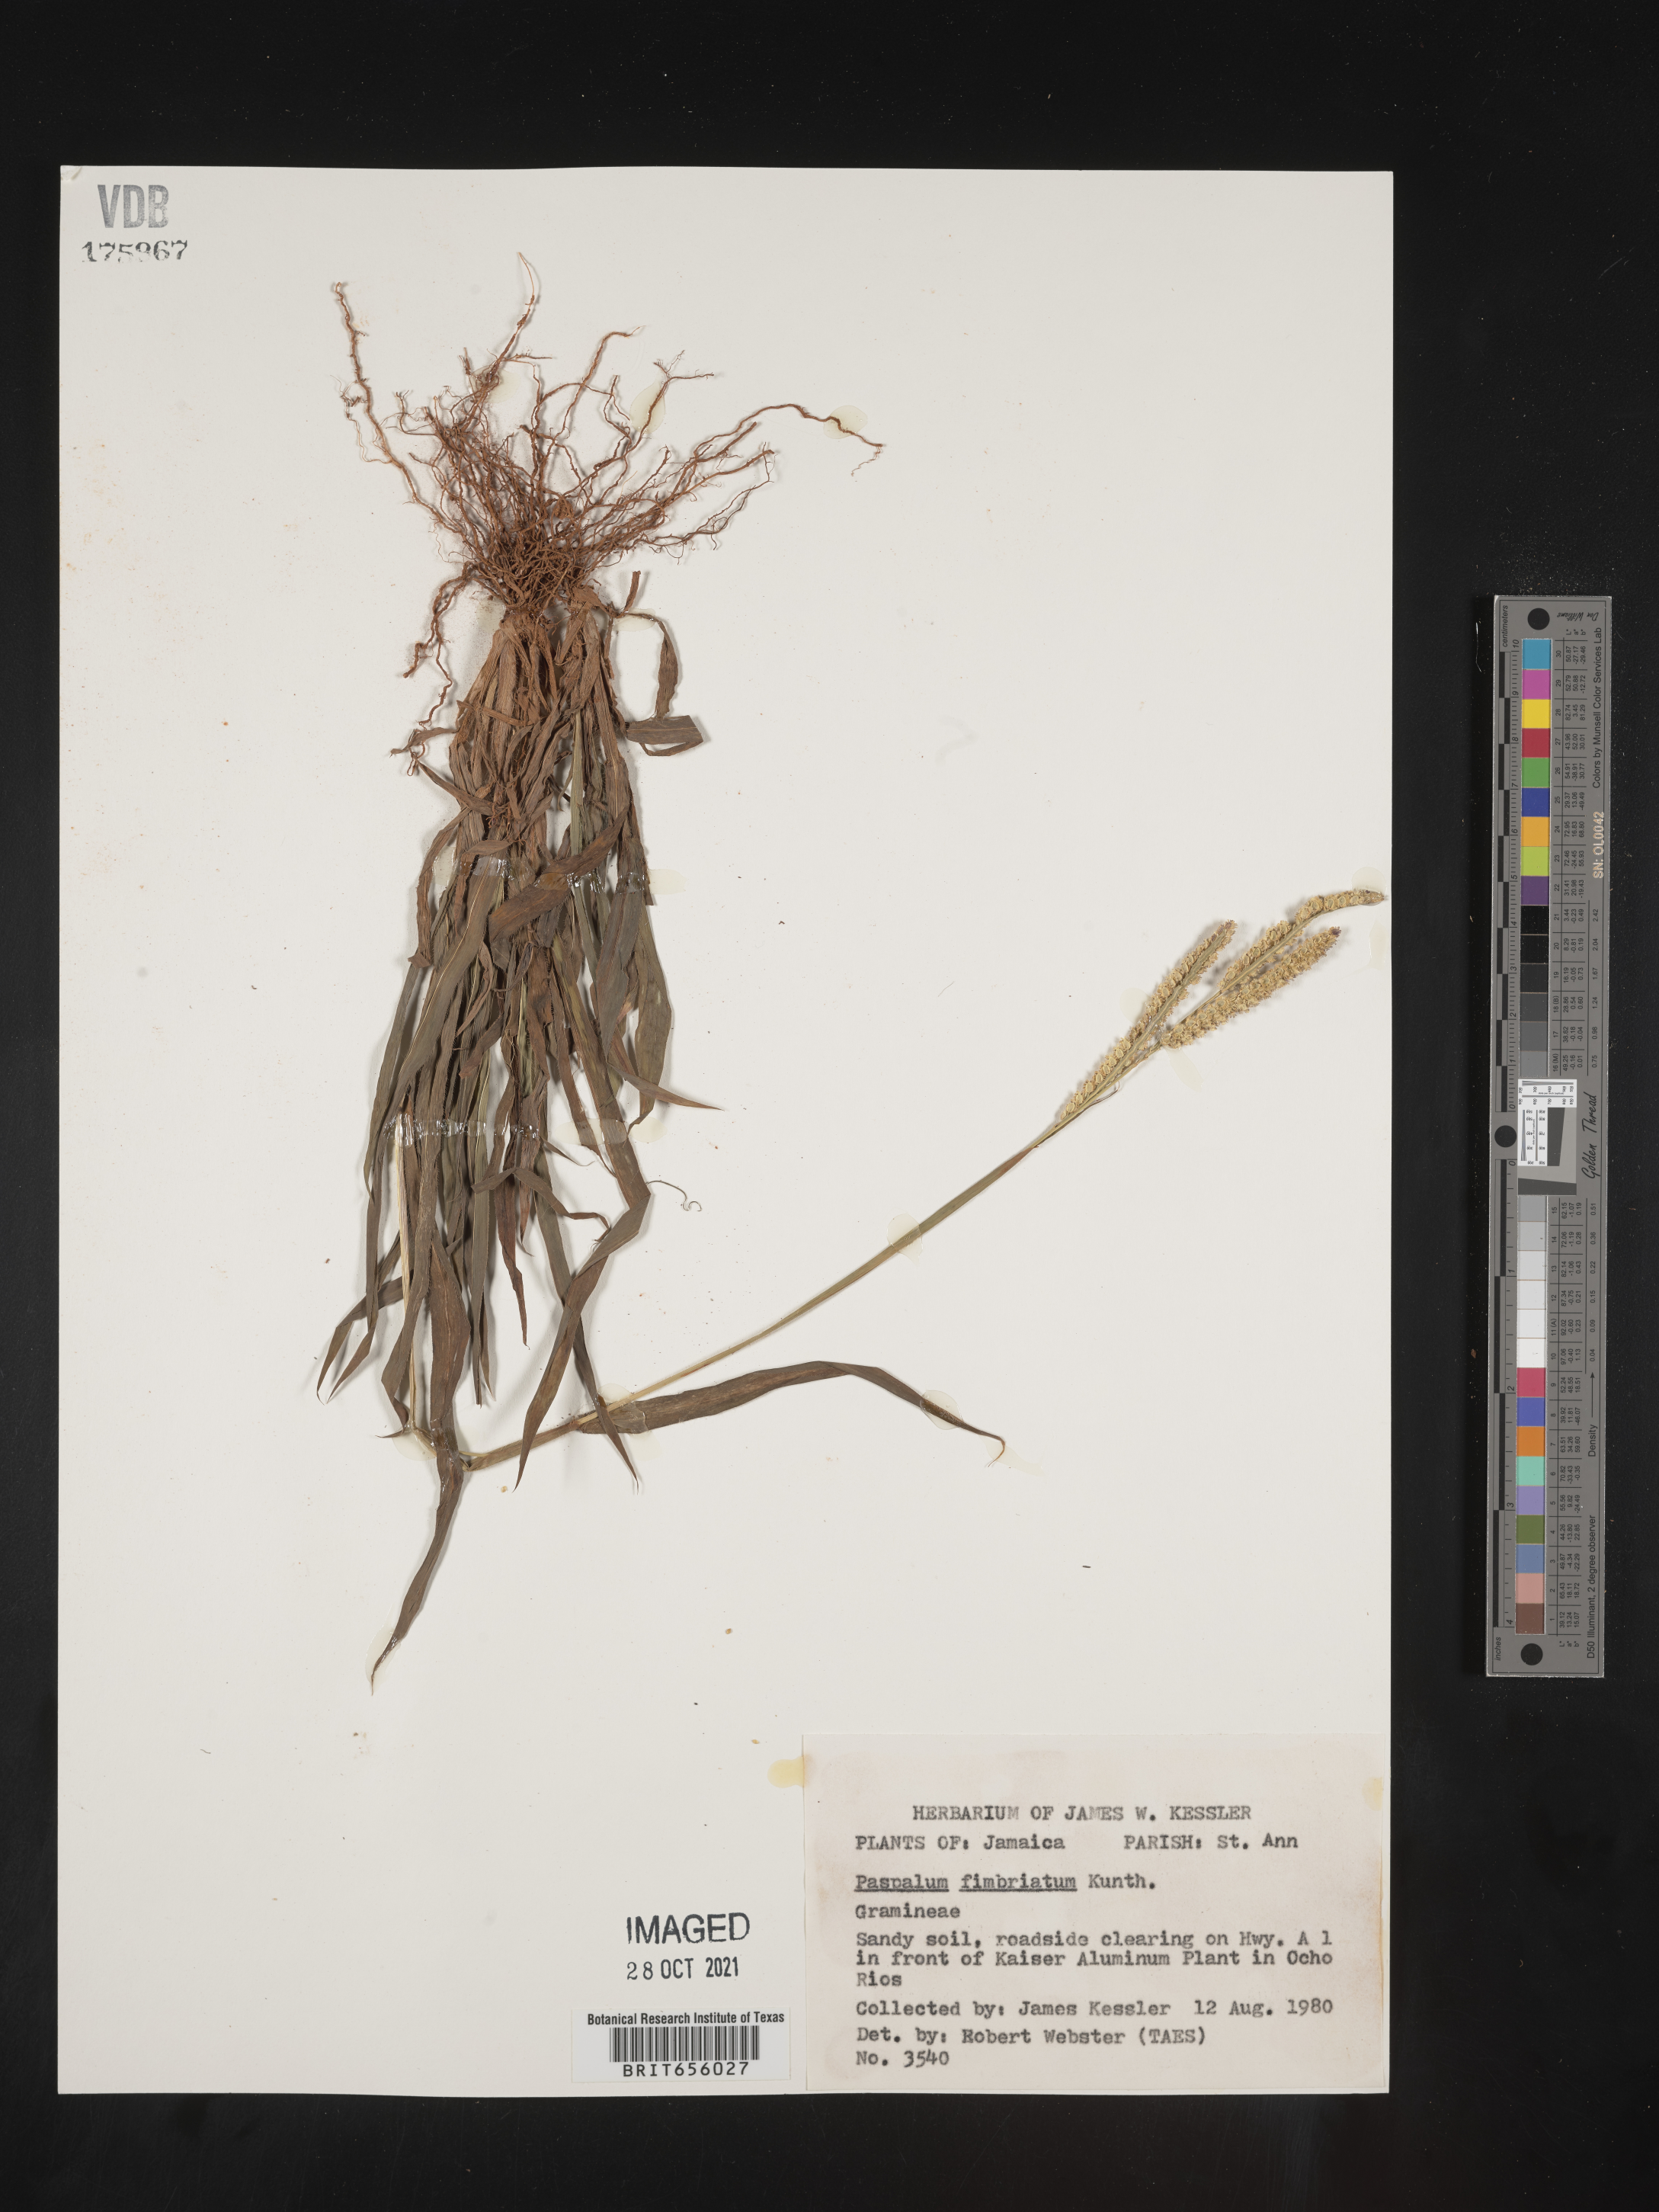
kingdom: Plantae
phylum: Tracheophyta
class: Liliopsida
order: Poales
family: Poaceae
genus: Paspalum
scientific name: Paspalum
